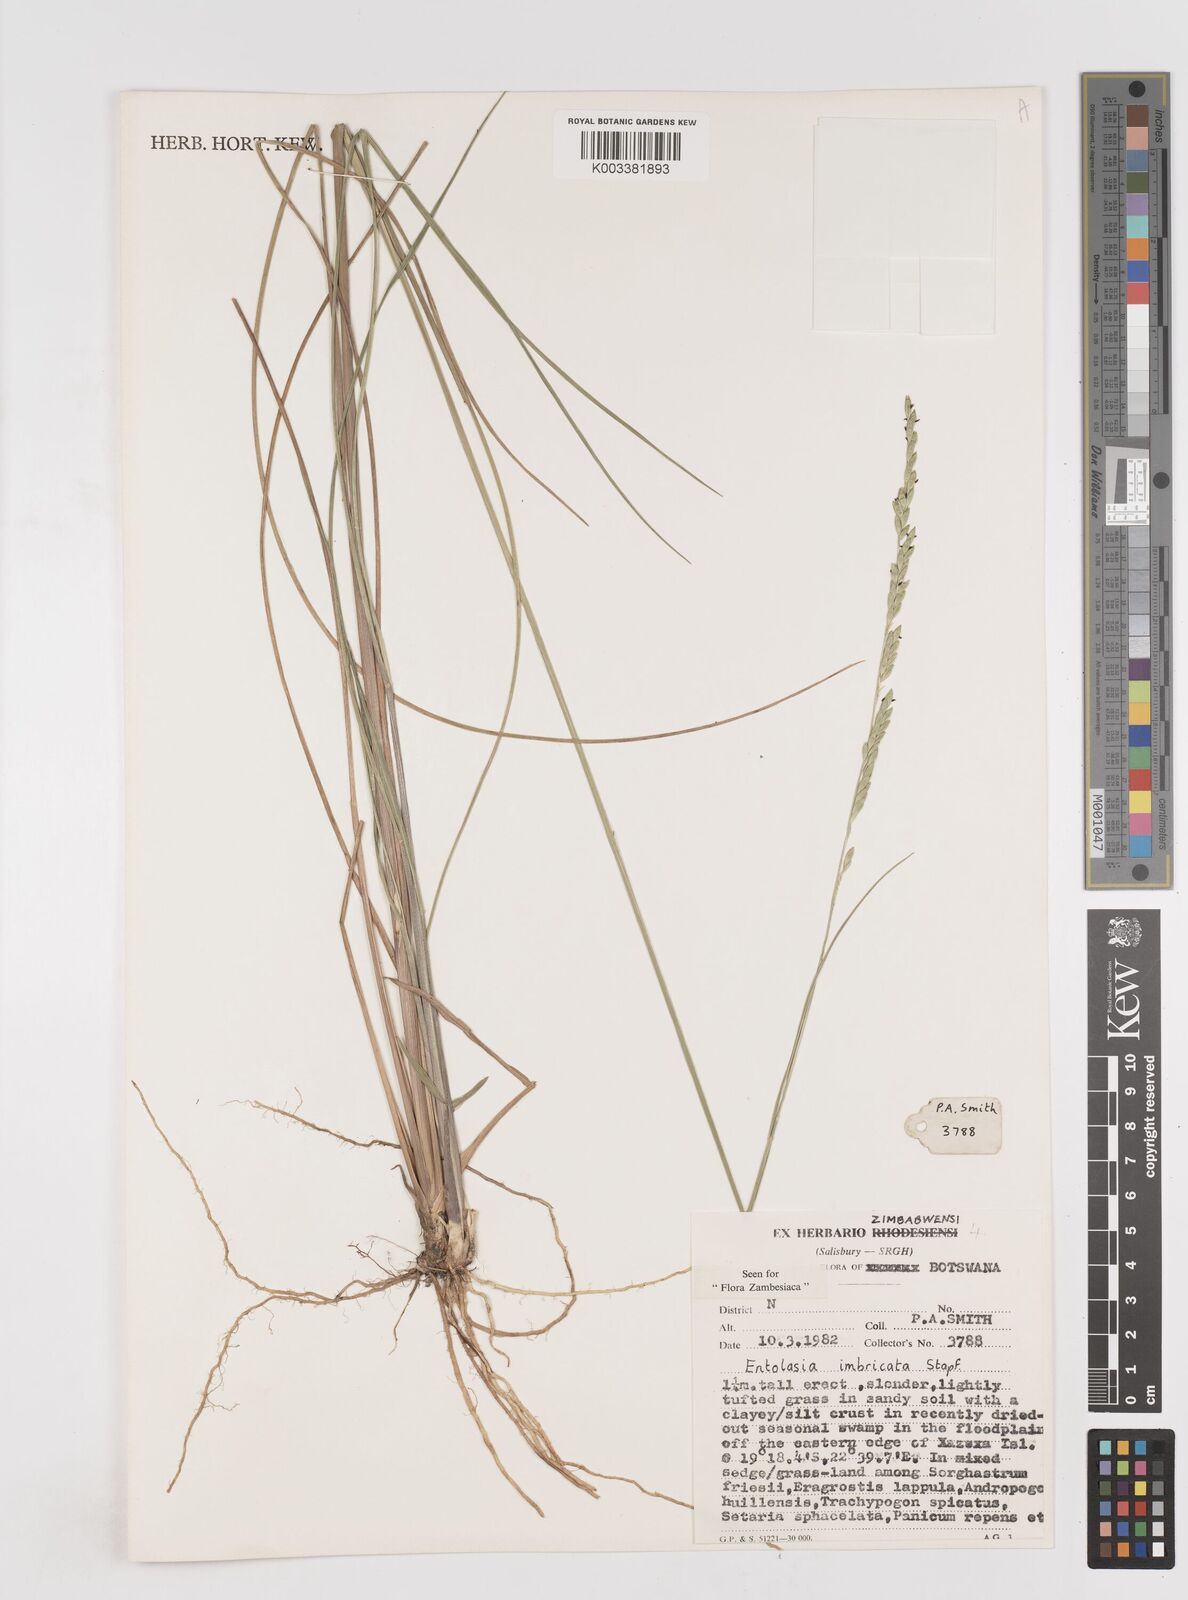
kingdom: Plantae
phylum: Tracheophyta
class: Liliopsida
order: Poales
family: Poaceae
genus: Entolasia
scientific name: Entolasia imbricata
